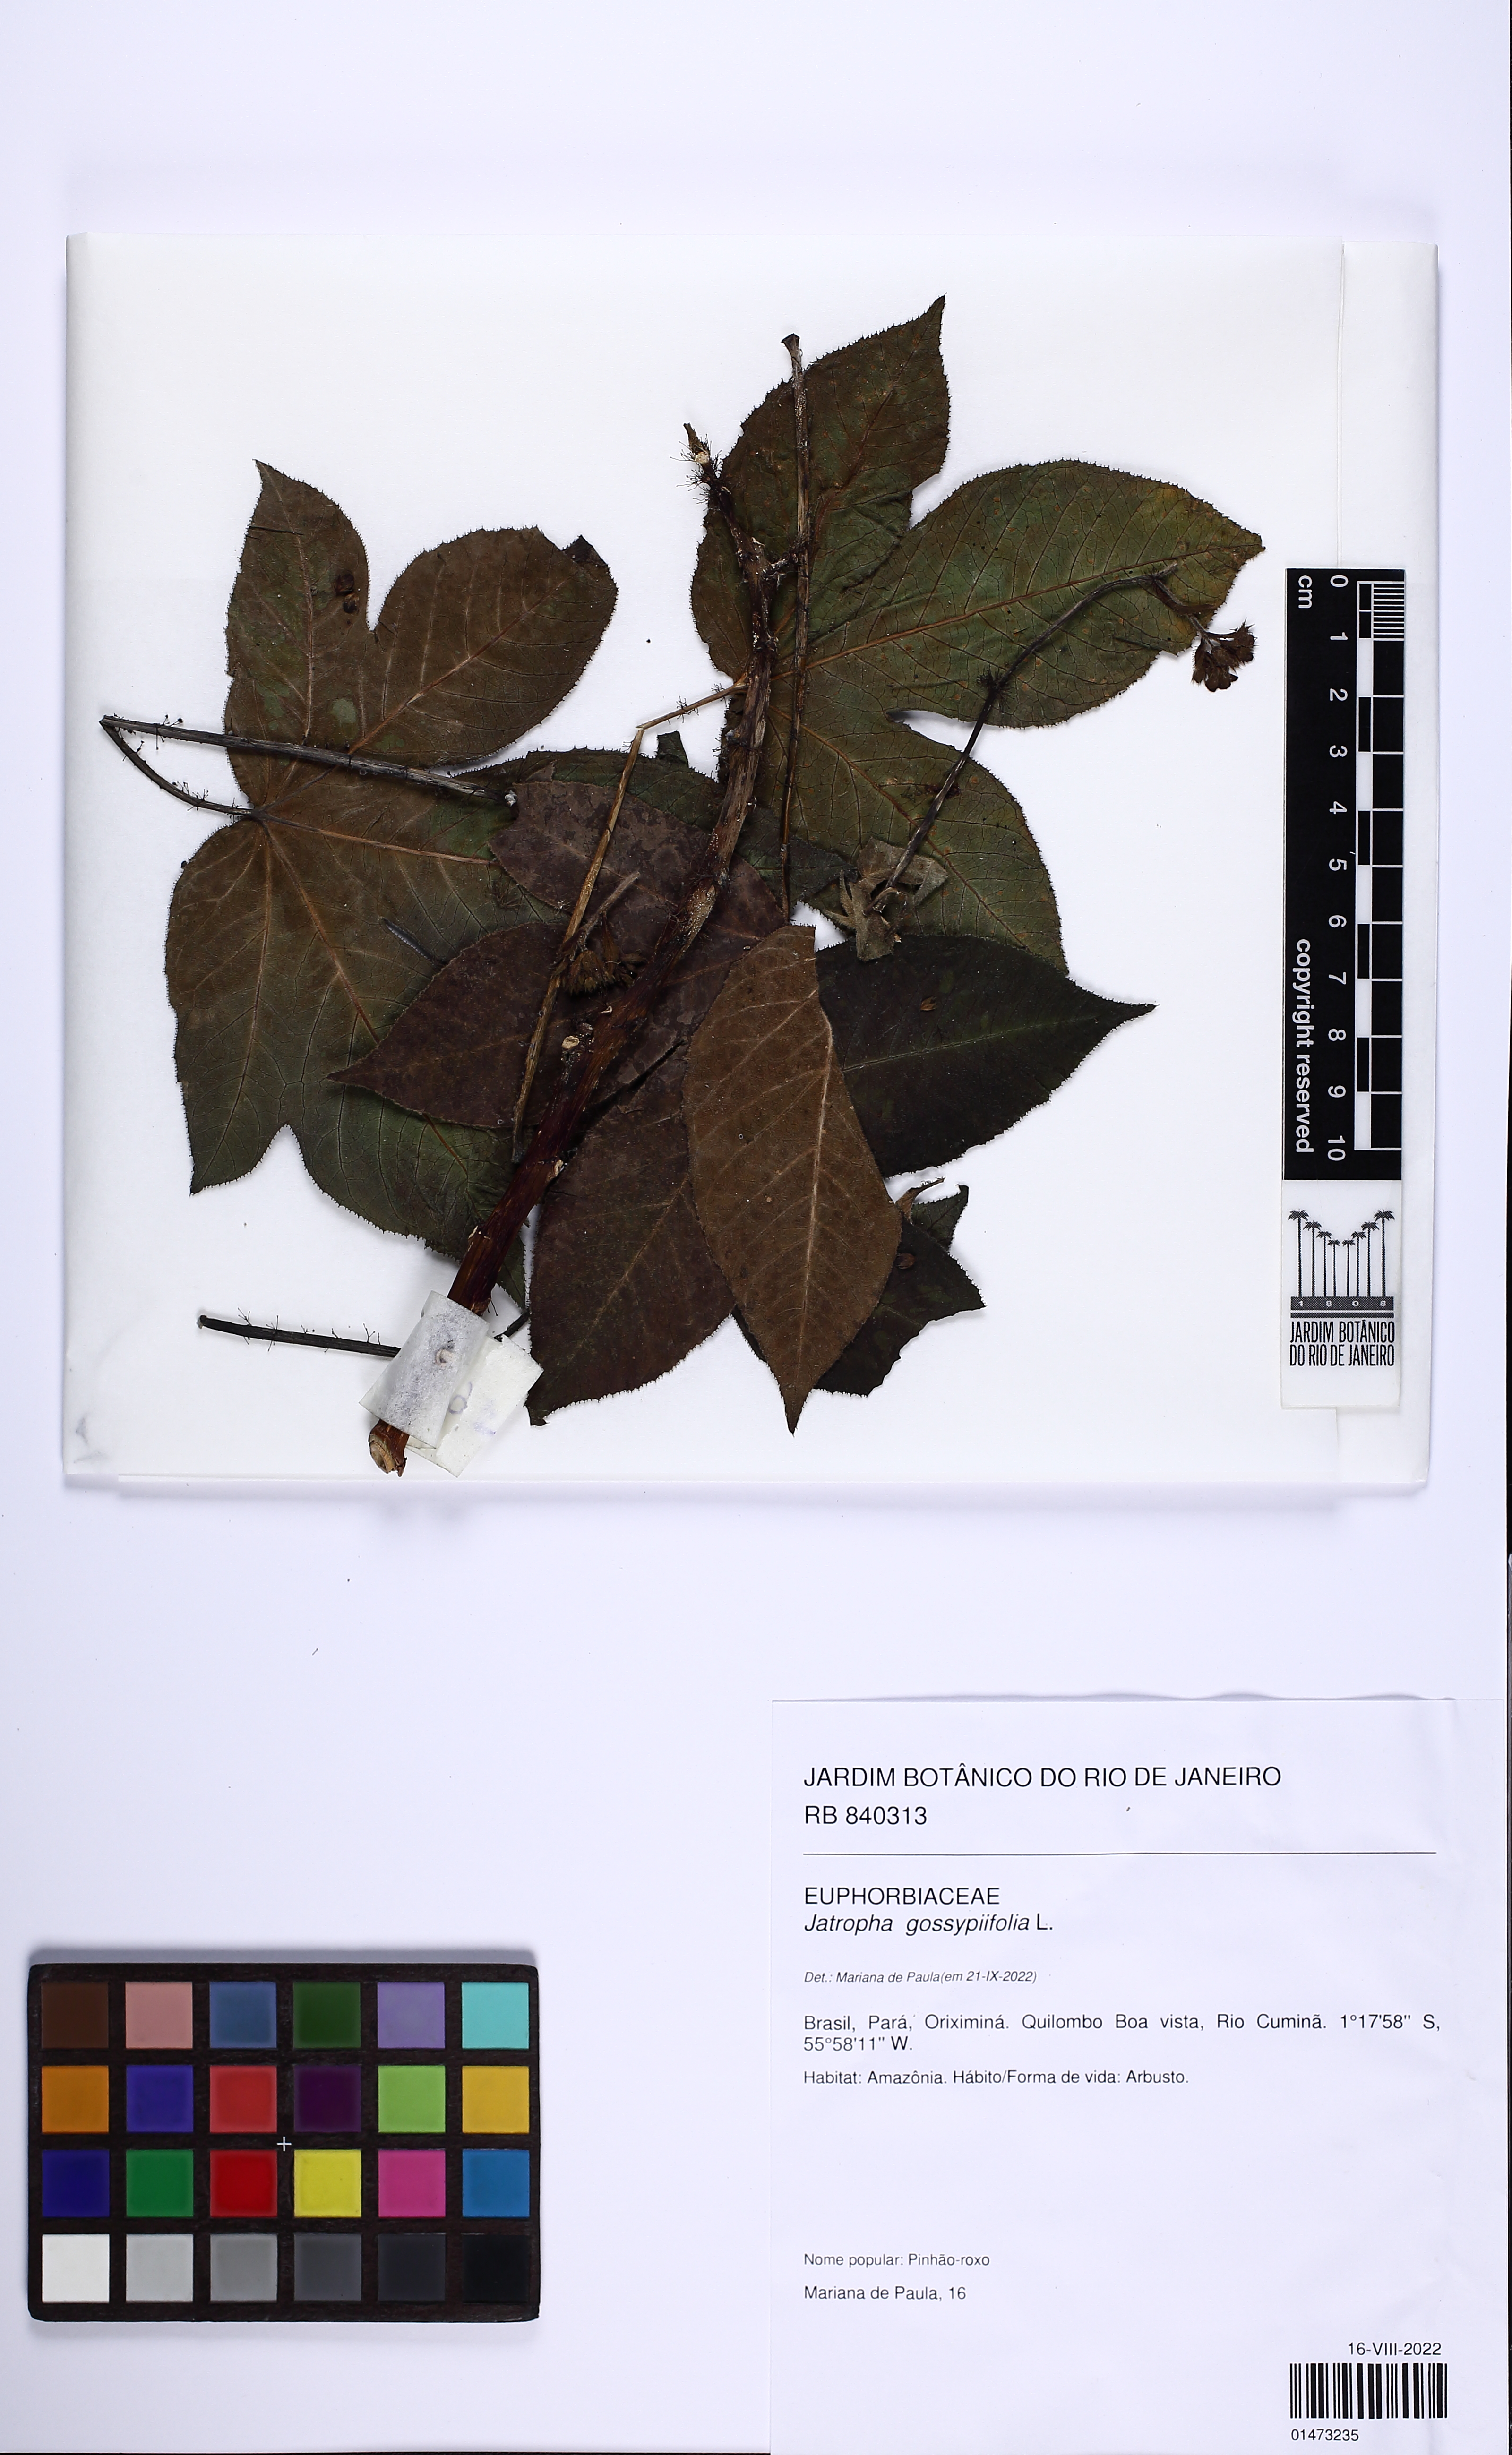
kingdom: Plantae
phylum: Tracheophyta
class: Magnoliopsida
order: Malpighiales
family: Euphorbiaceae
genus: Jatropha
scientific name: Jatropha gossypiifolia
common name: Bellyache bush
